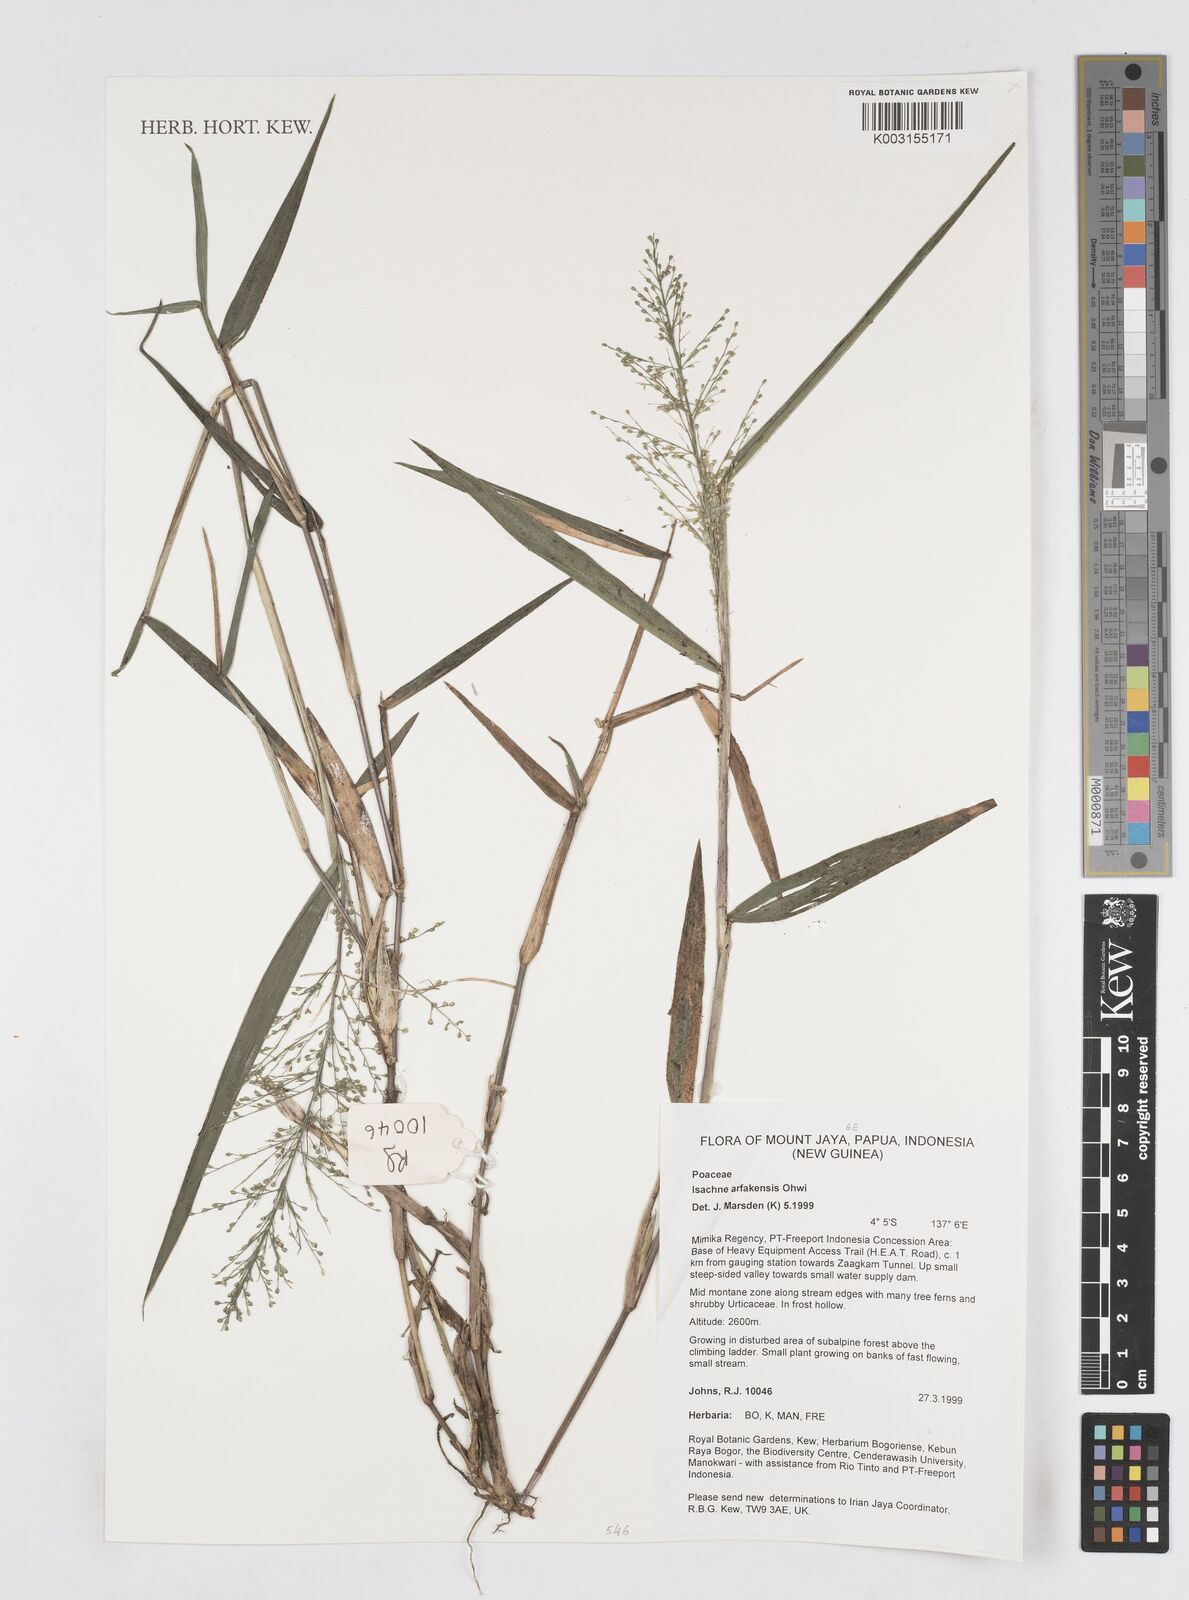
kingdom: Plantae
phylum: Tracheophyta
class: Liliopsida
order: Poales
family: Poaceae
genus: Isachne
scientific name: Isachne arfakensis
